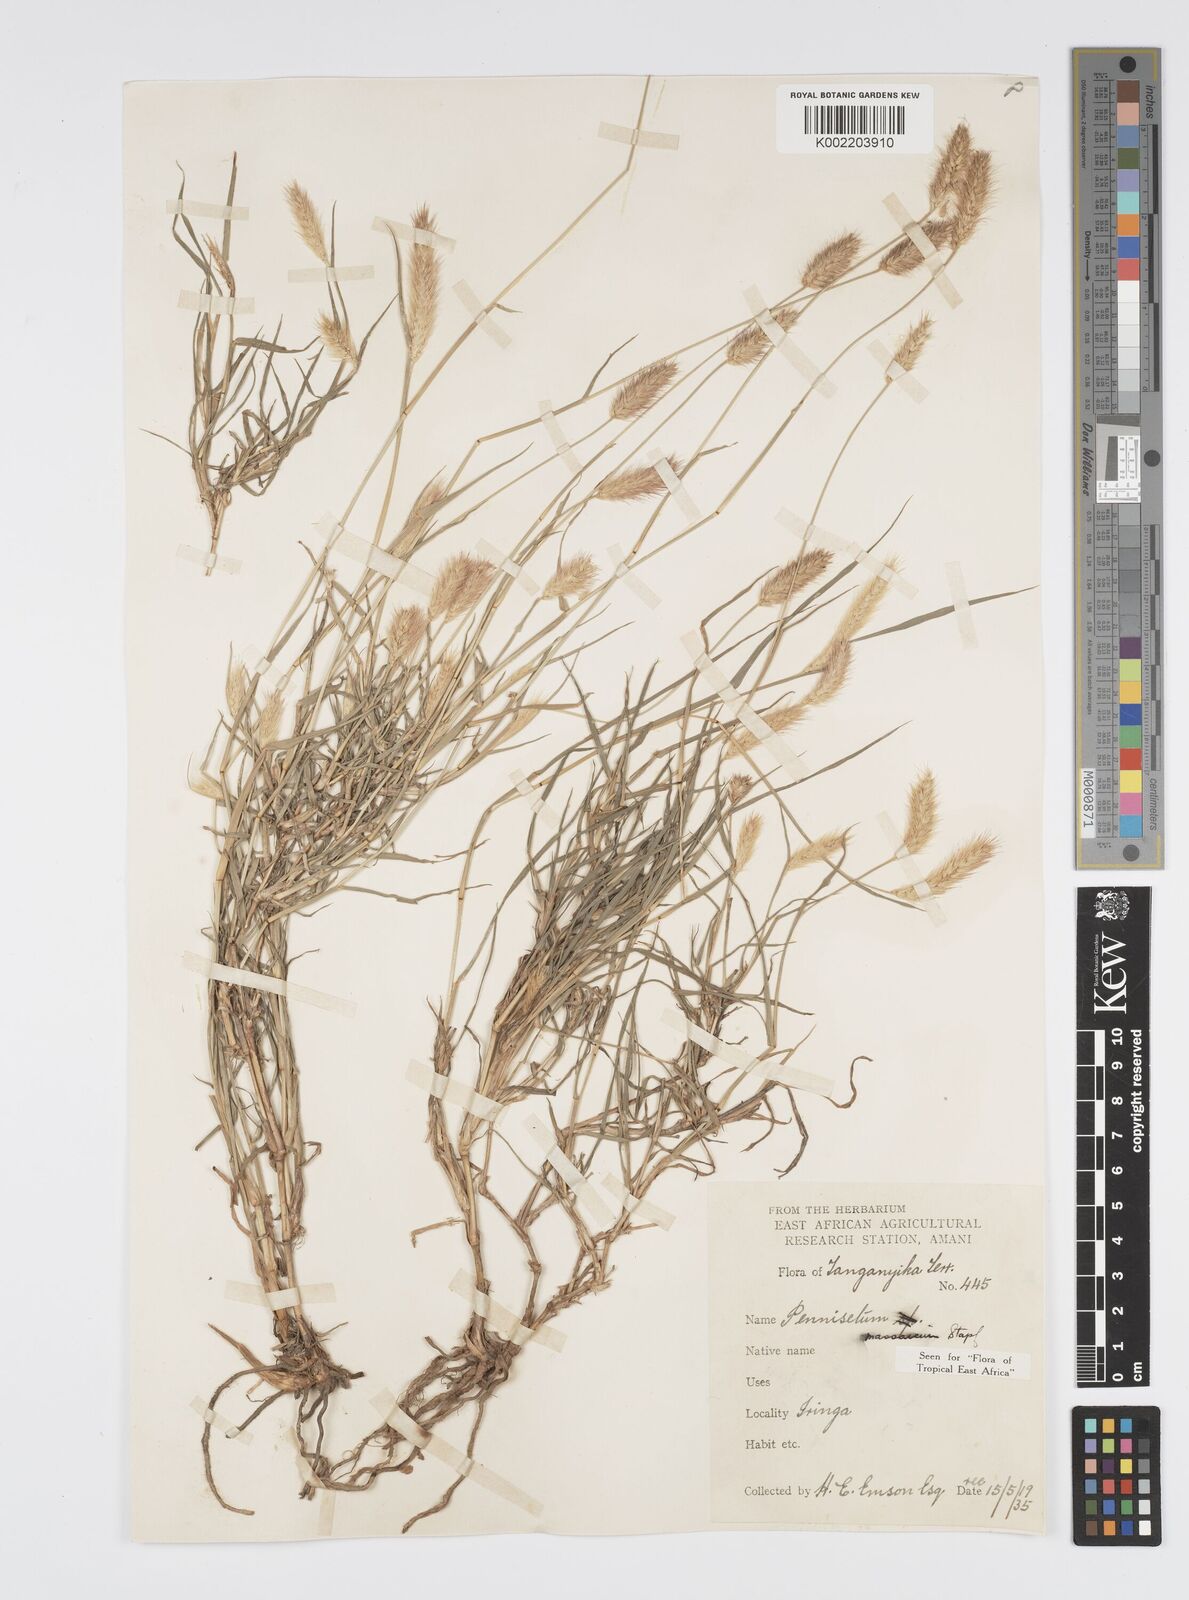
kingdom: Plantae
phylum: Tracheophyta
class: Liliopsida
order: Poales
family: Poaceae
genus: Cenchrus
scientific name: Cenchrus massaicus
